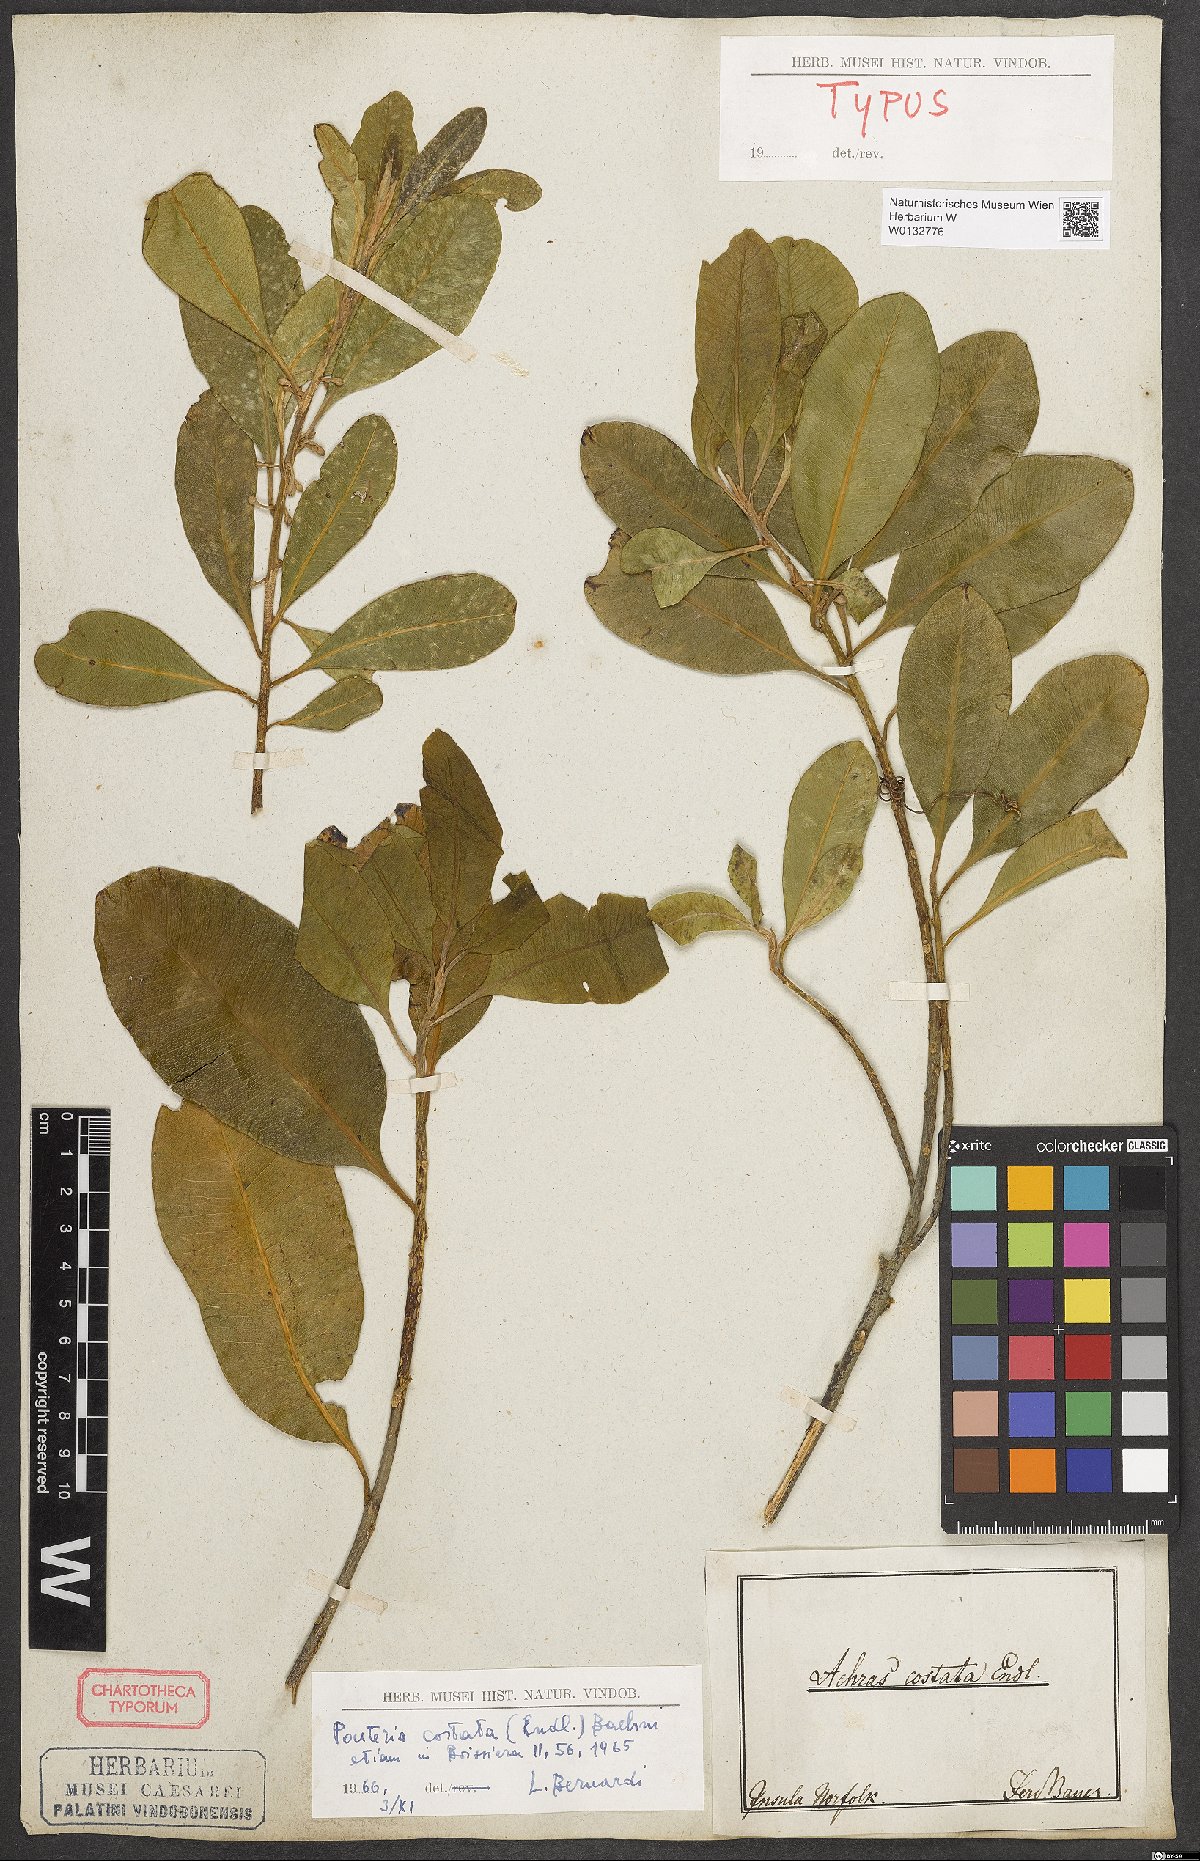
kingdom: Plantae
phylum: Tracheophyta
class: Magnoliopsida
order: Ericales
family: Sapotaceae
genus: Planchonella
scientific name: Planchonella costata
